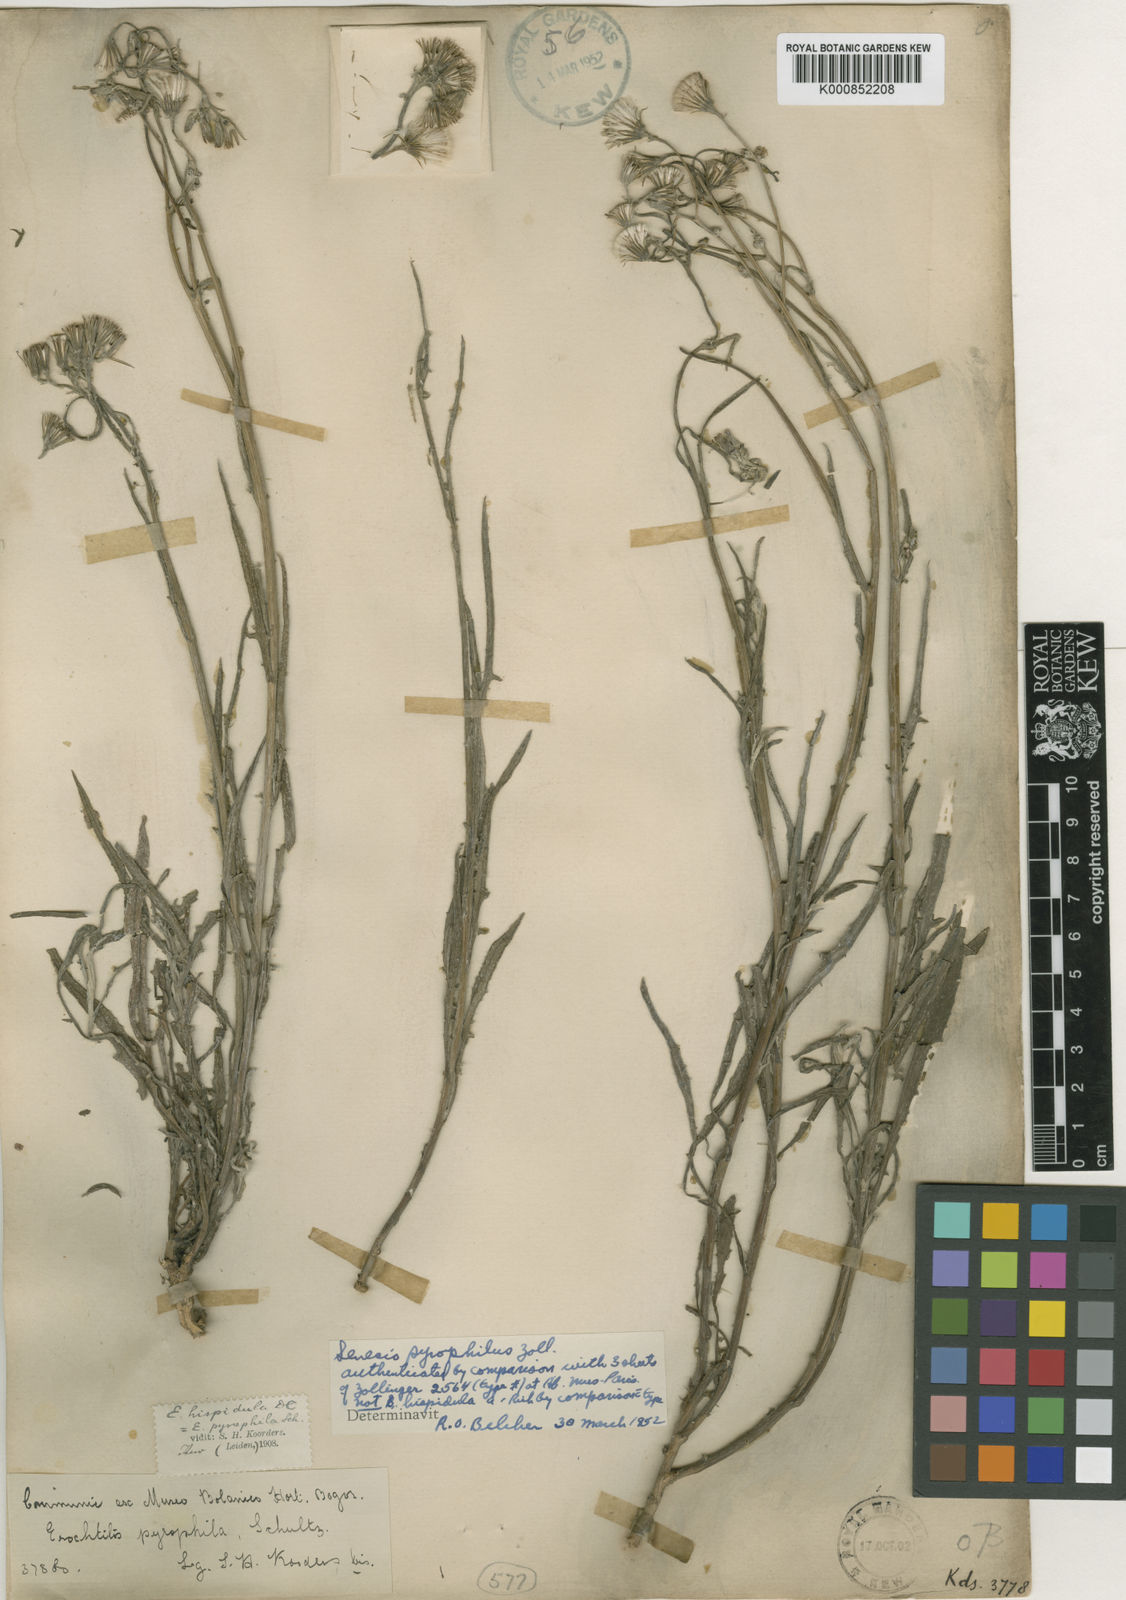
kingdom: Plantae
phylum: Tracheophyta
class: Magnoliopsida
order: Asterales
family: Asteraceae
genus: Senecio
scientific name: Senecio pyrophilus
